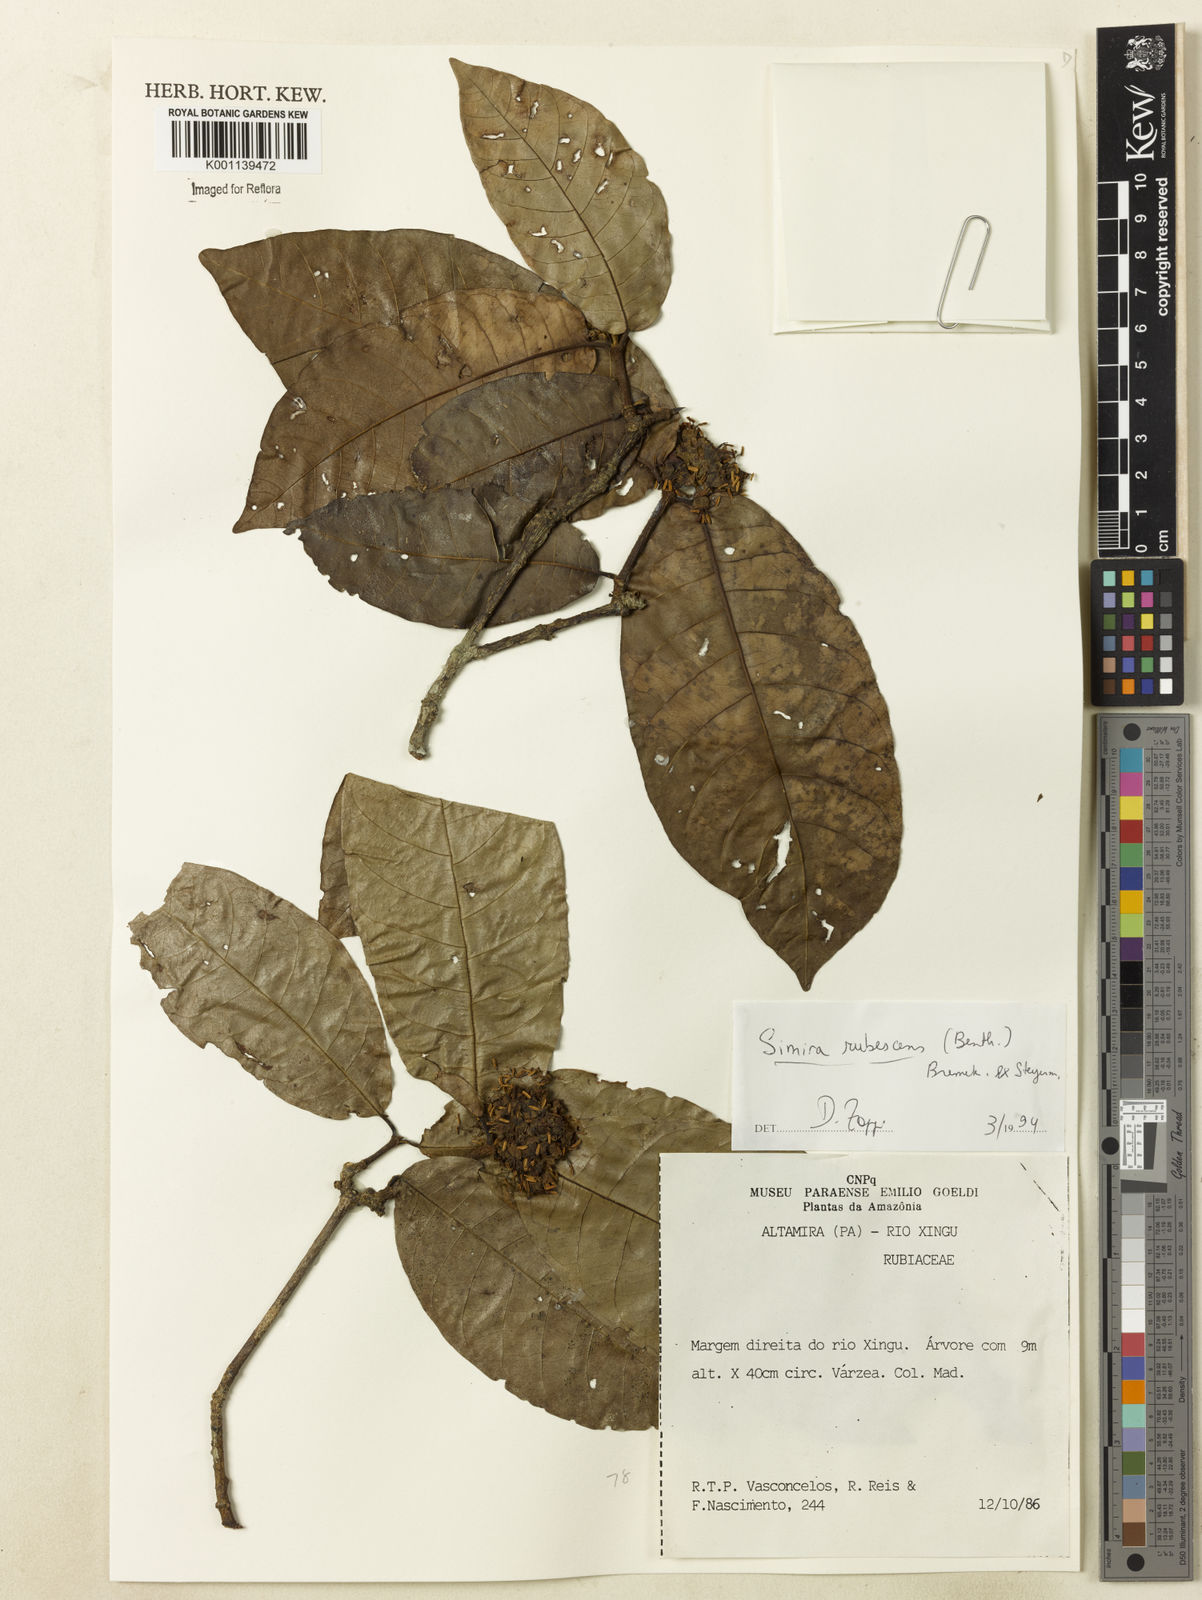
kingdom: Plantae
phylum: Tracheophyta
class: Magnoliopsida
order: Gentianales
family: Rubiaceae
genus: Simira
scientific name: Simira rubescens
